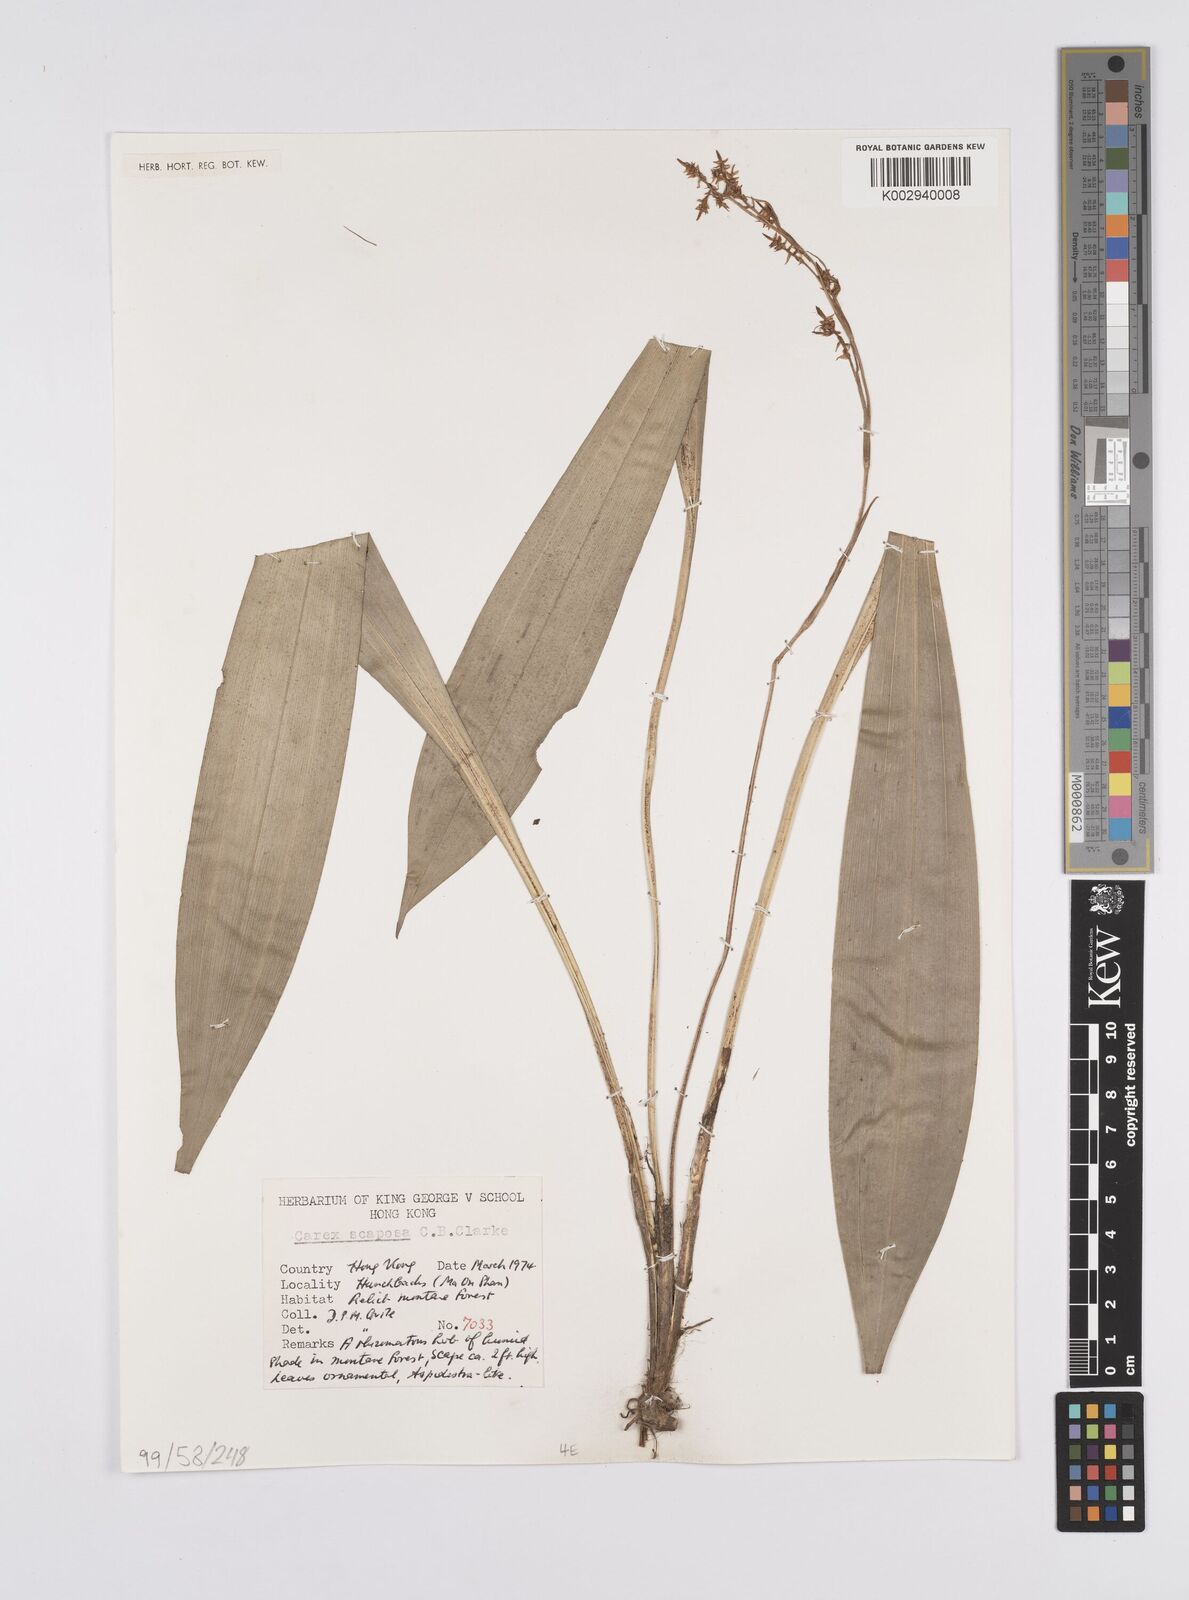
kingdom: Plantae
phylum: Tracheophyta
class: Liliopsida
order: Poales
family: Cyperaceae
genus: Carex
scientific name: Carex scaposa
